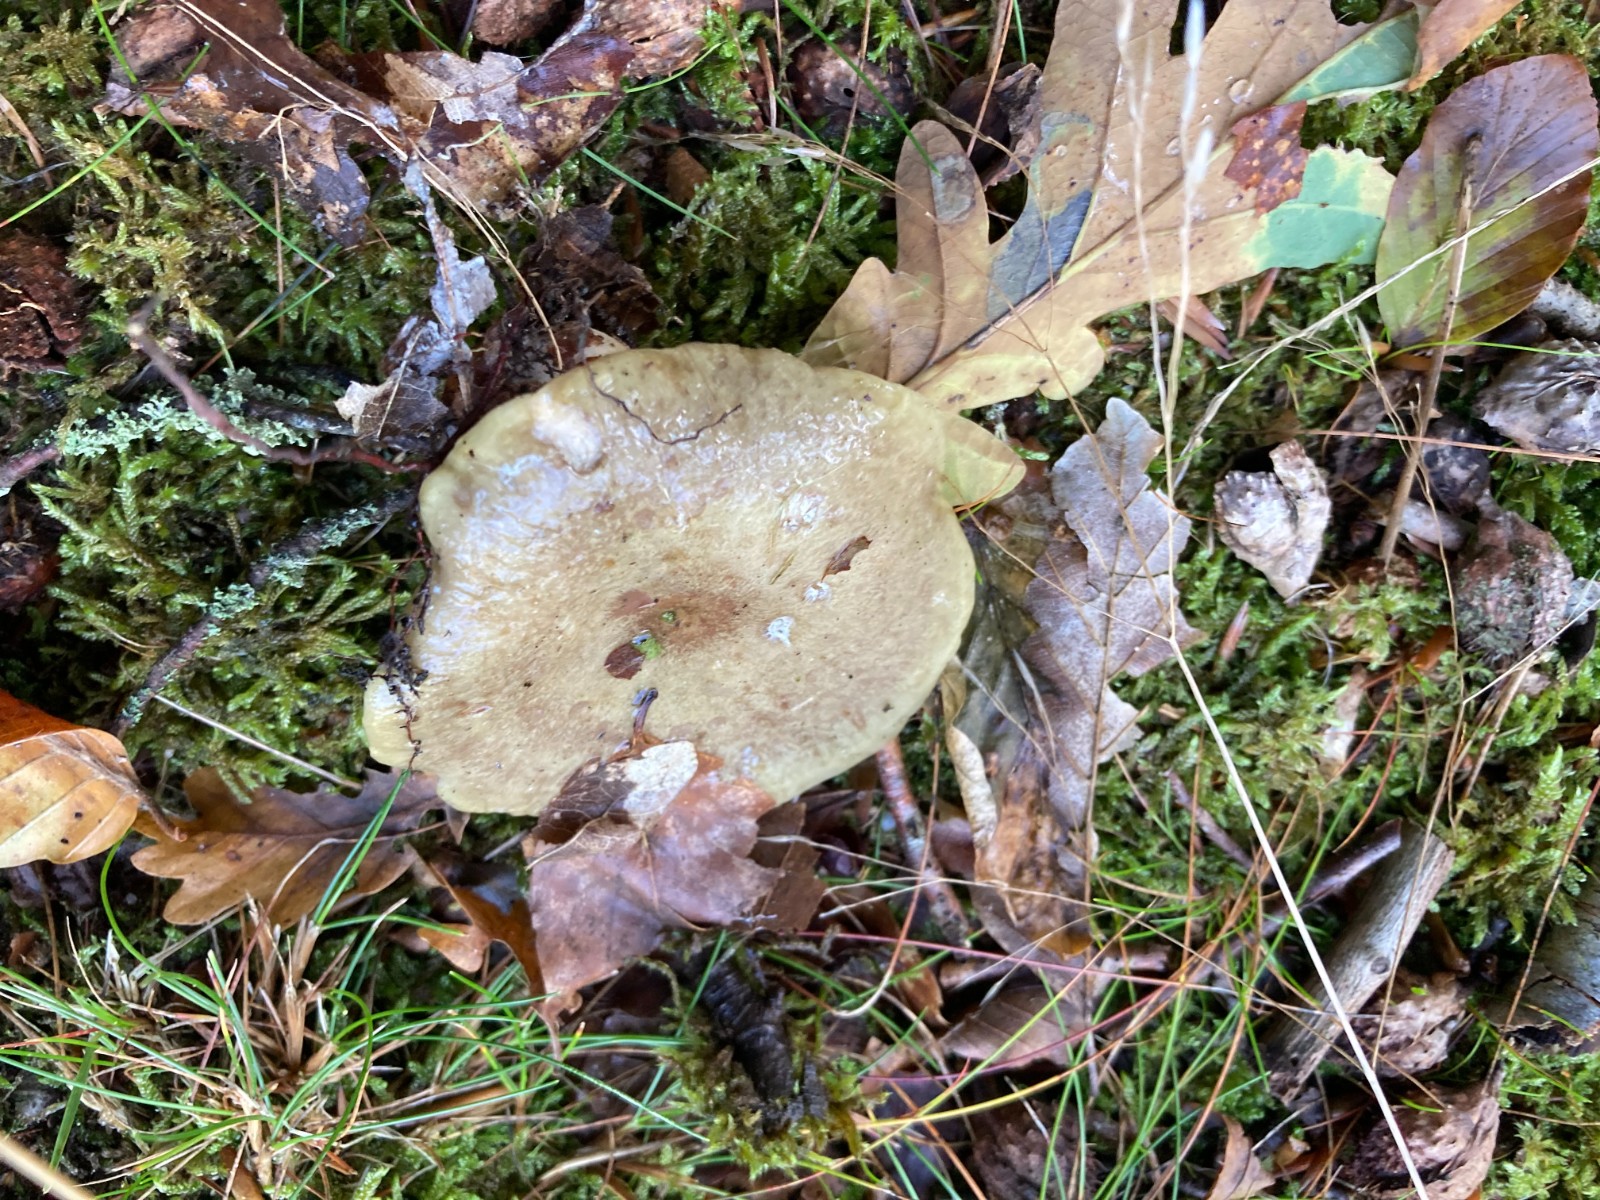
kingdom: Fungi
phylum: Basidiomycota
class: Agaricomycetes
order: Russulales
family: Russulaceae
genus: Lactarius
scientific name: Lactarius blennius
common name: dråbeplettet mælkehat
